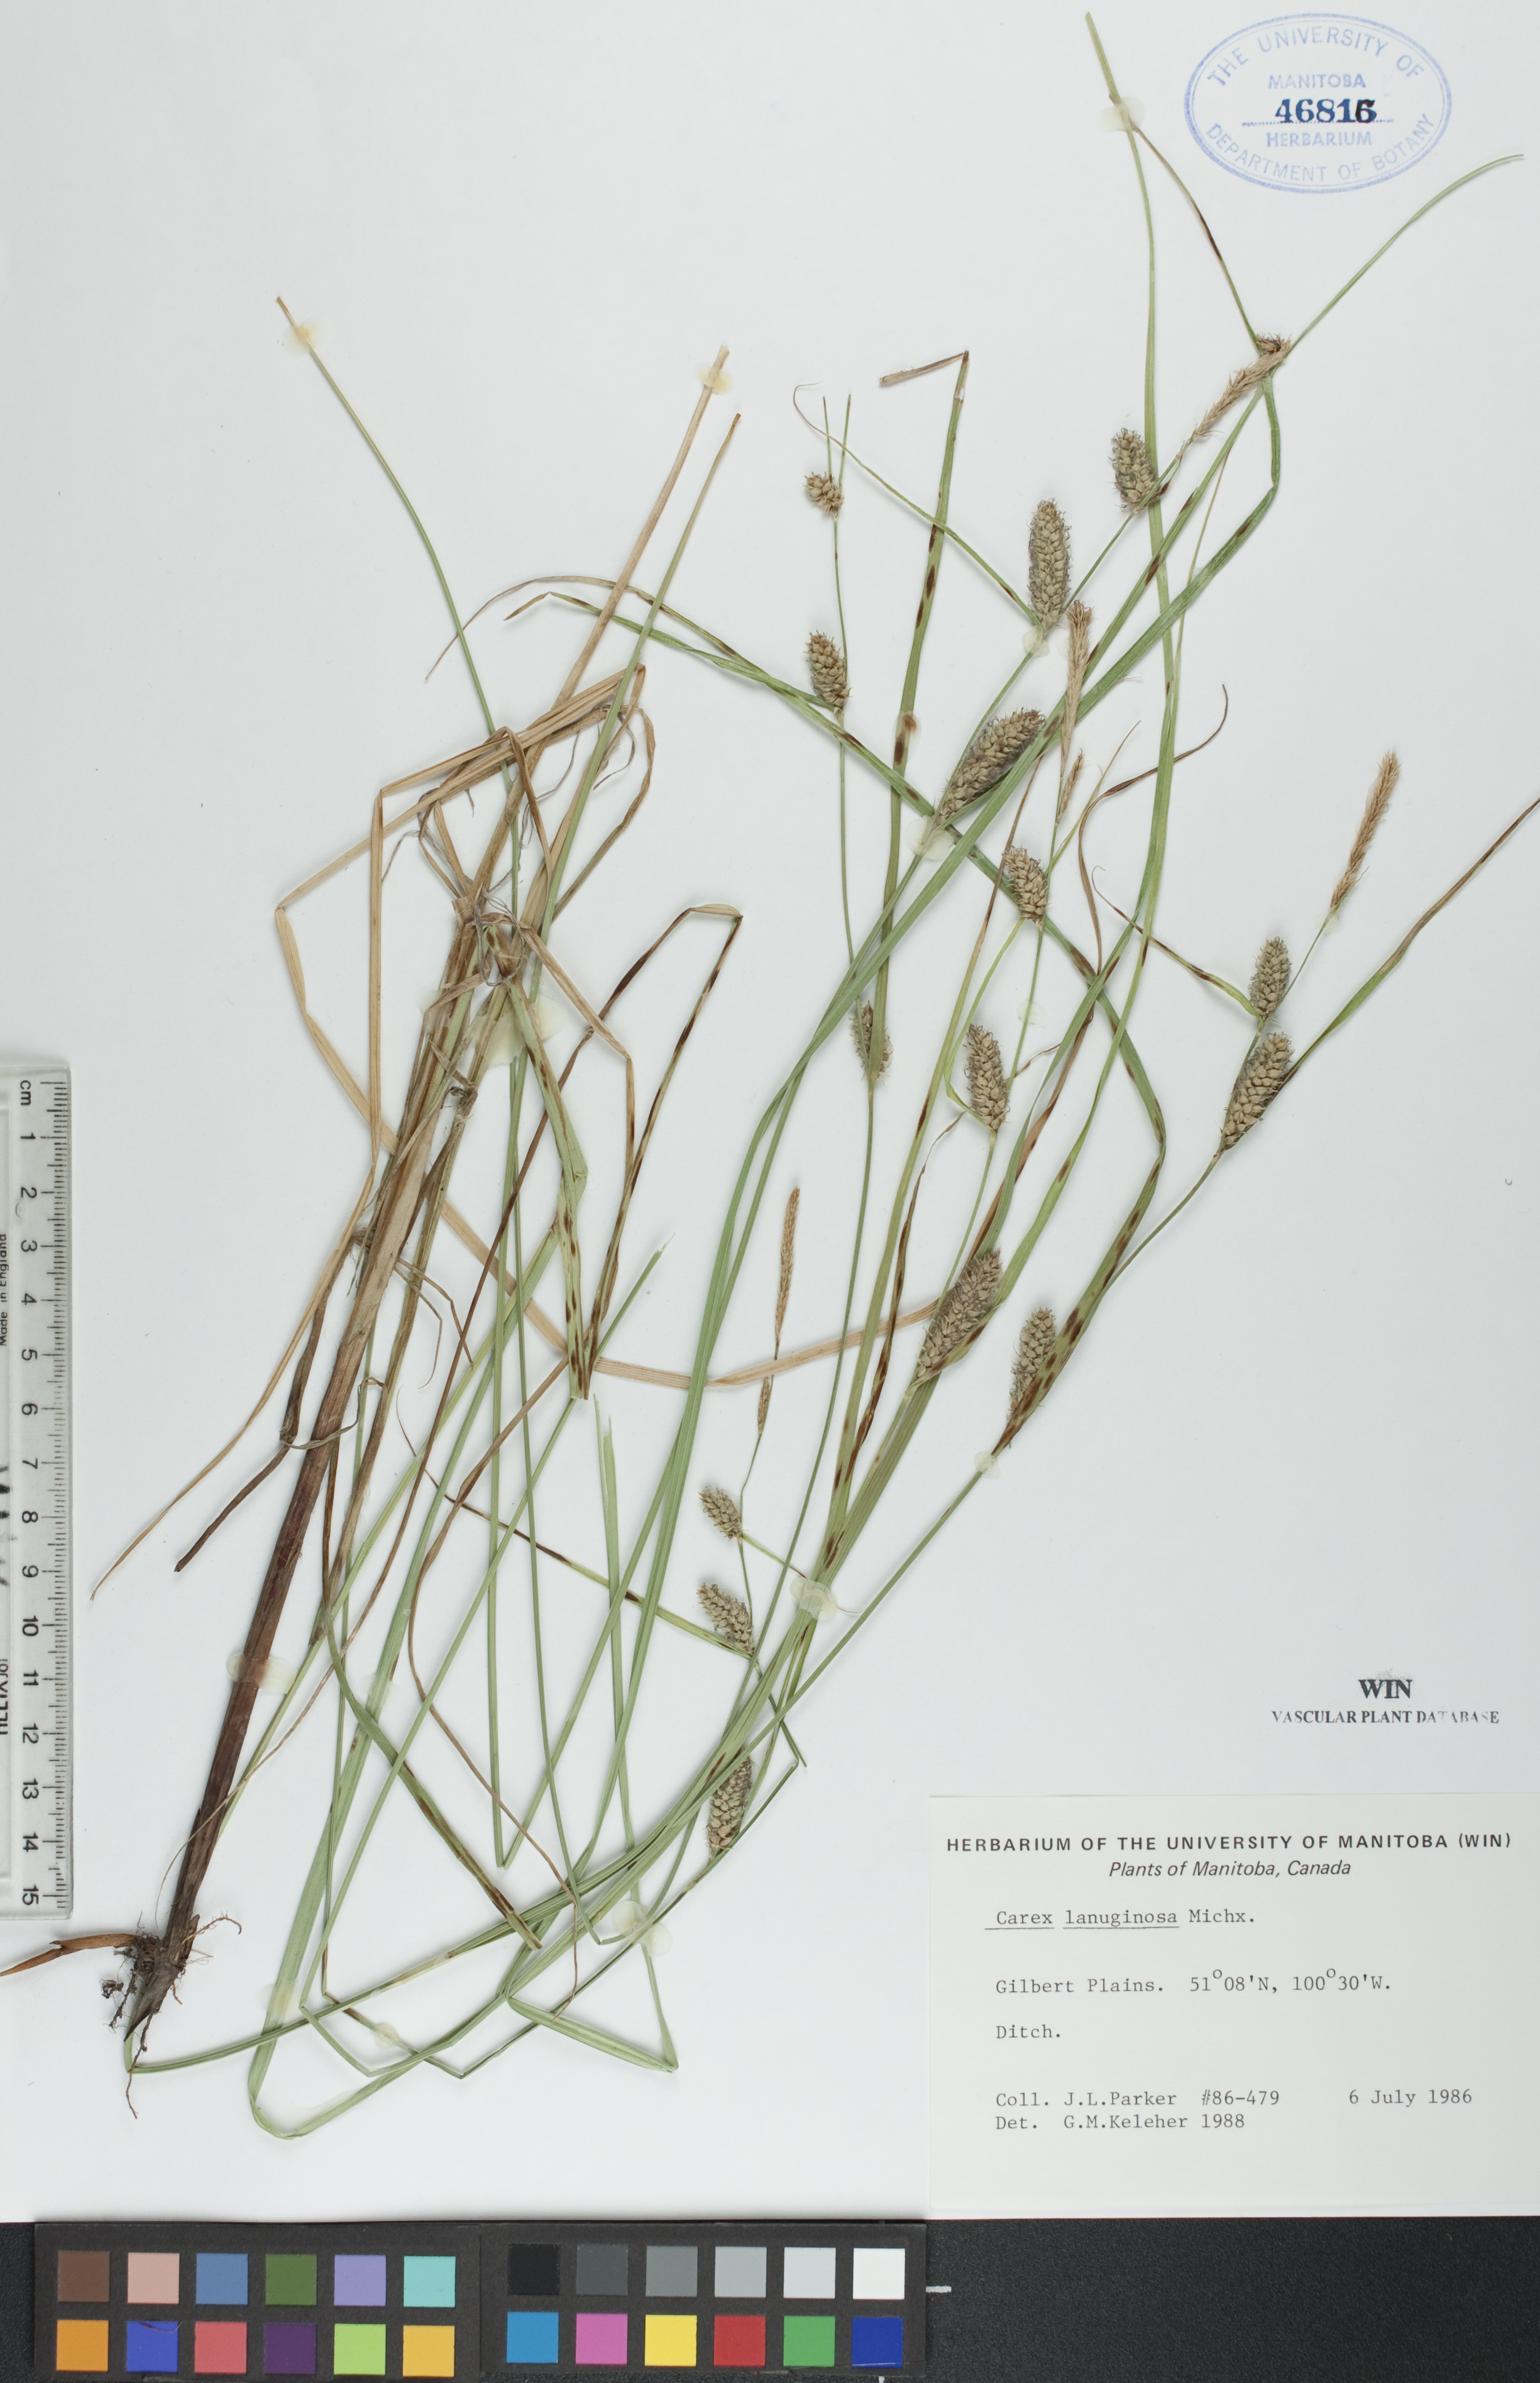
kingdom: Plantae
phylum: Tracheophyta
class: Liliopsida
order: Poales
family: Cyperaceae
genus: Carex
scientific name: Carex lasiocarpa
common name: Slender sedge
